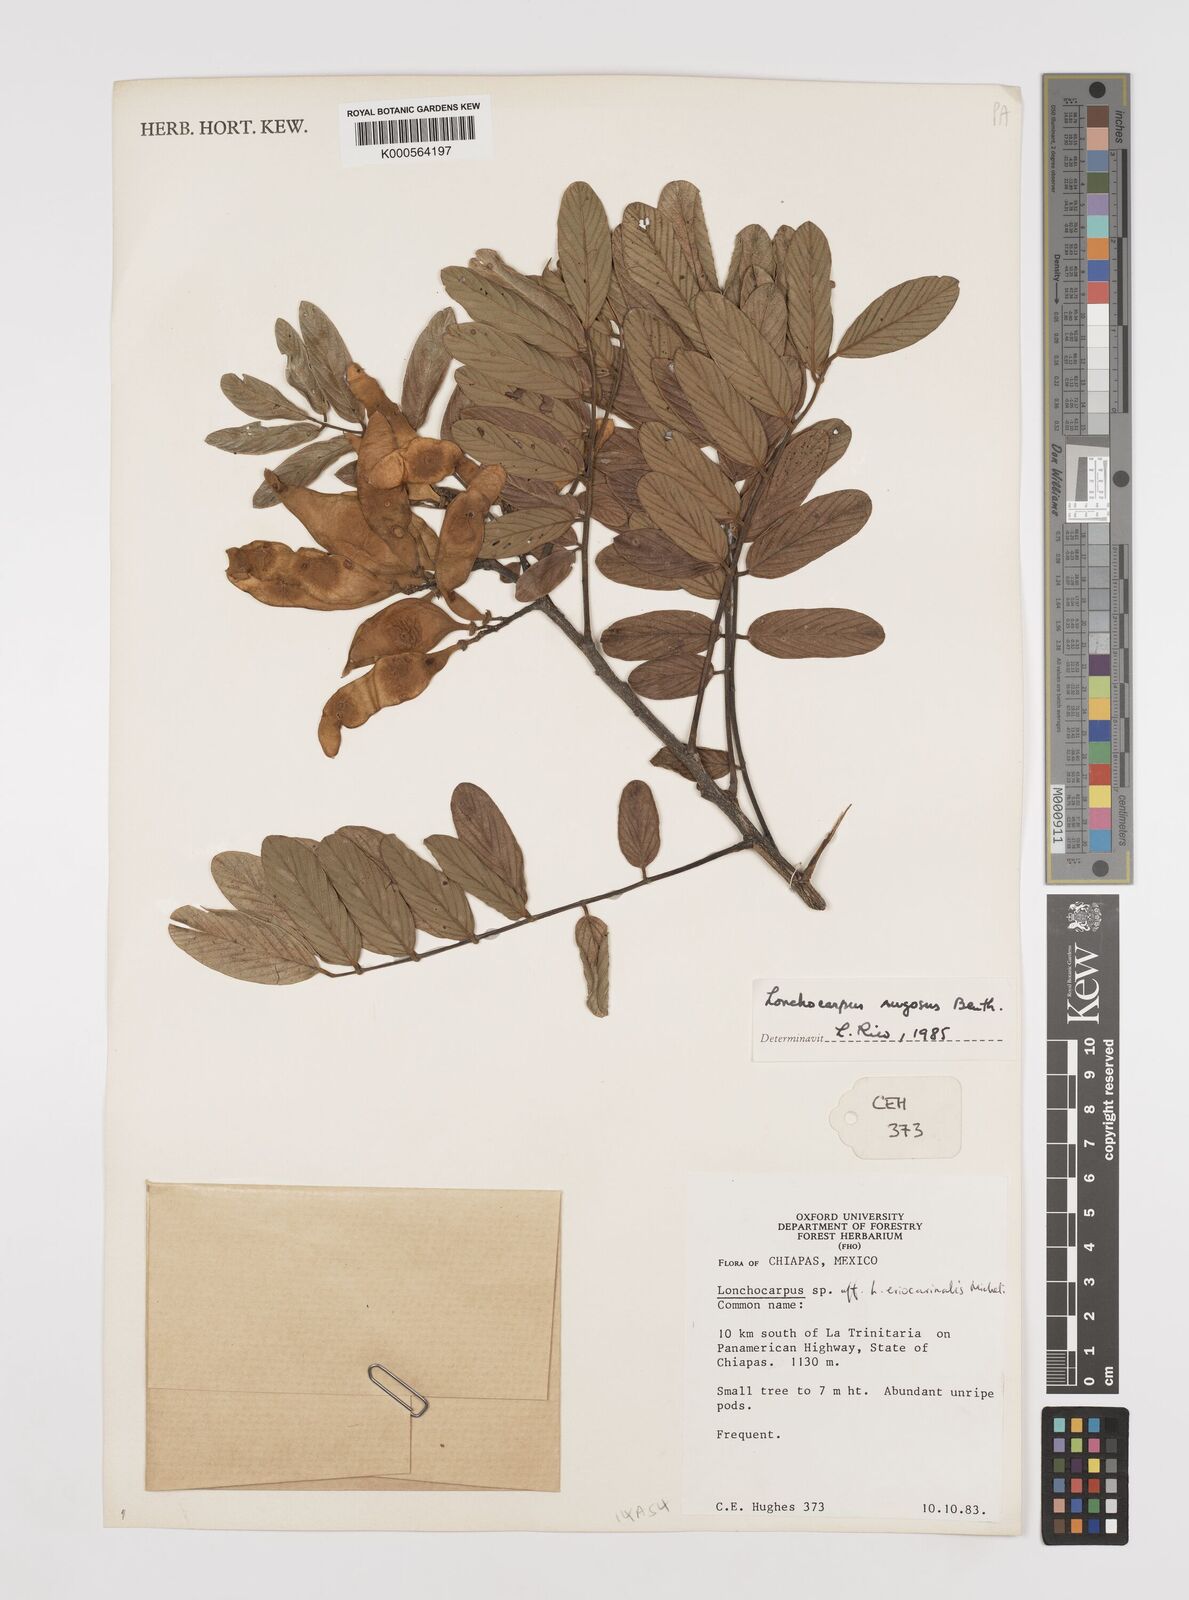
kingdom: Plantae
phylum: Tracheophyta
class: Magnoliopsida
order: Fabales
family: Fabaceae
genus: Lonchocarpus
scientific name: Lonchocarpus rugosus
